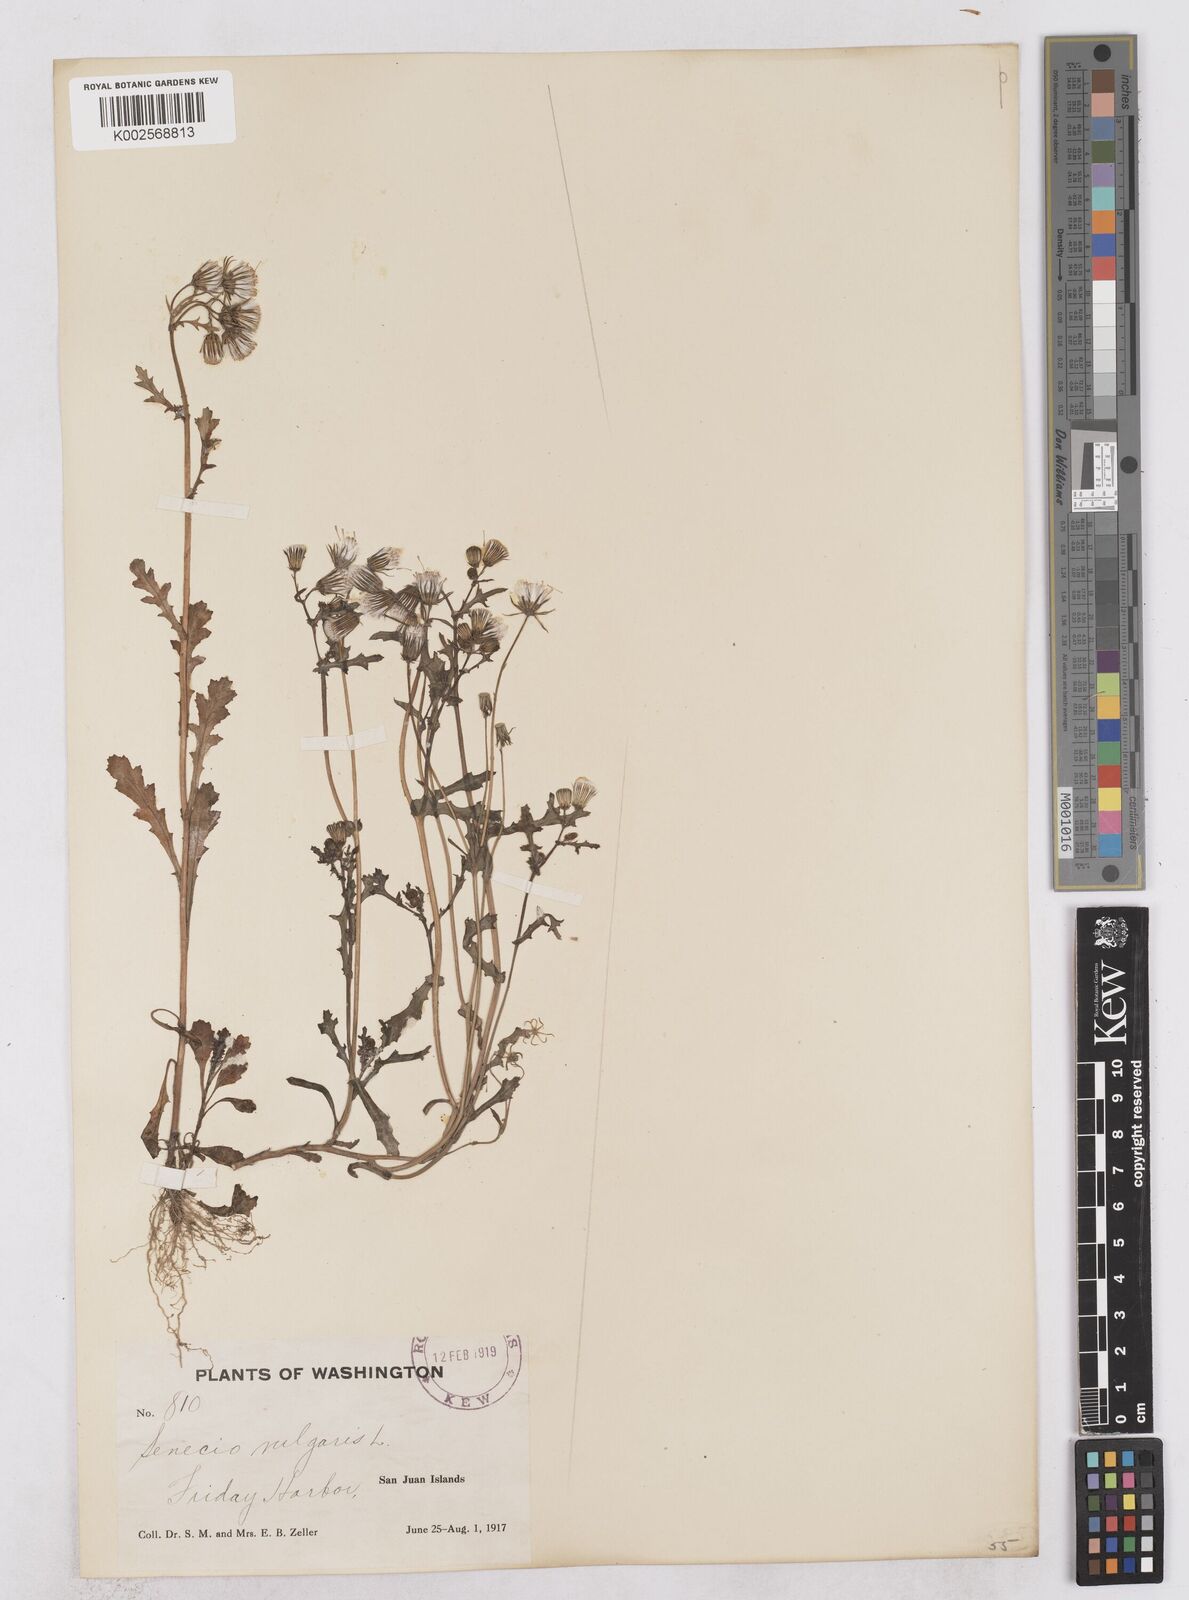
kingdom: Plantae
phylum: Tracheophyta
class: Magnoliopsida
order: Asterales
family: Asteraceae
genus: Senecio
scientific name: Senecio vulgaris
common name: Old-man-in-the-spring
